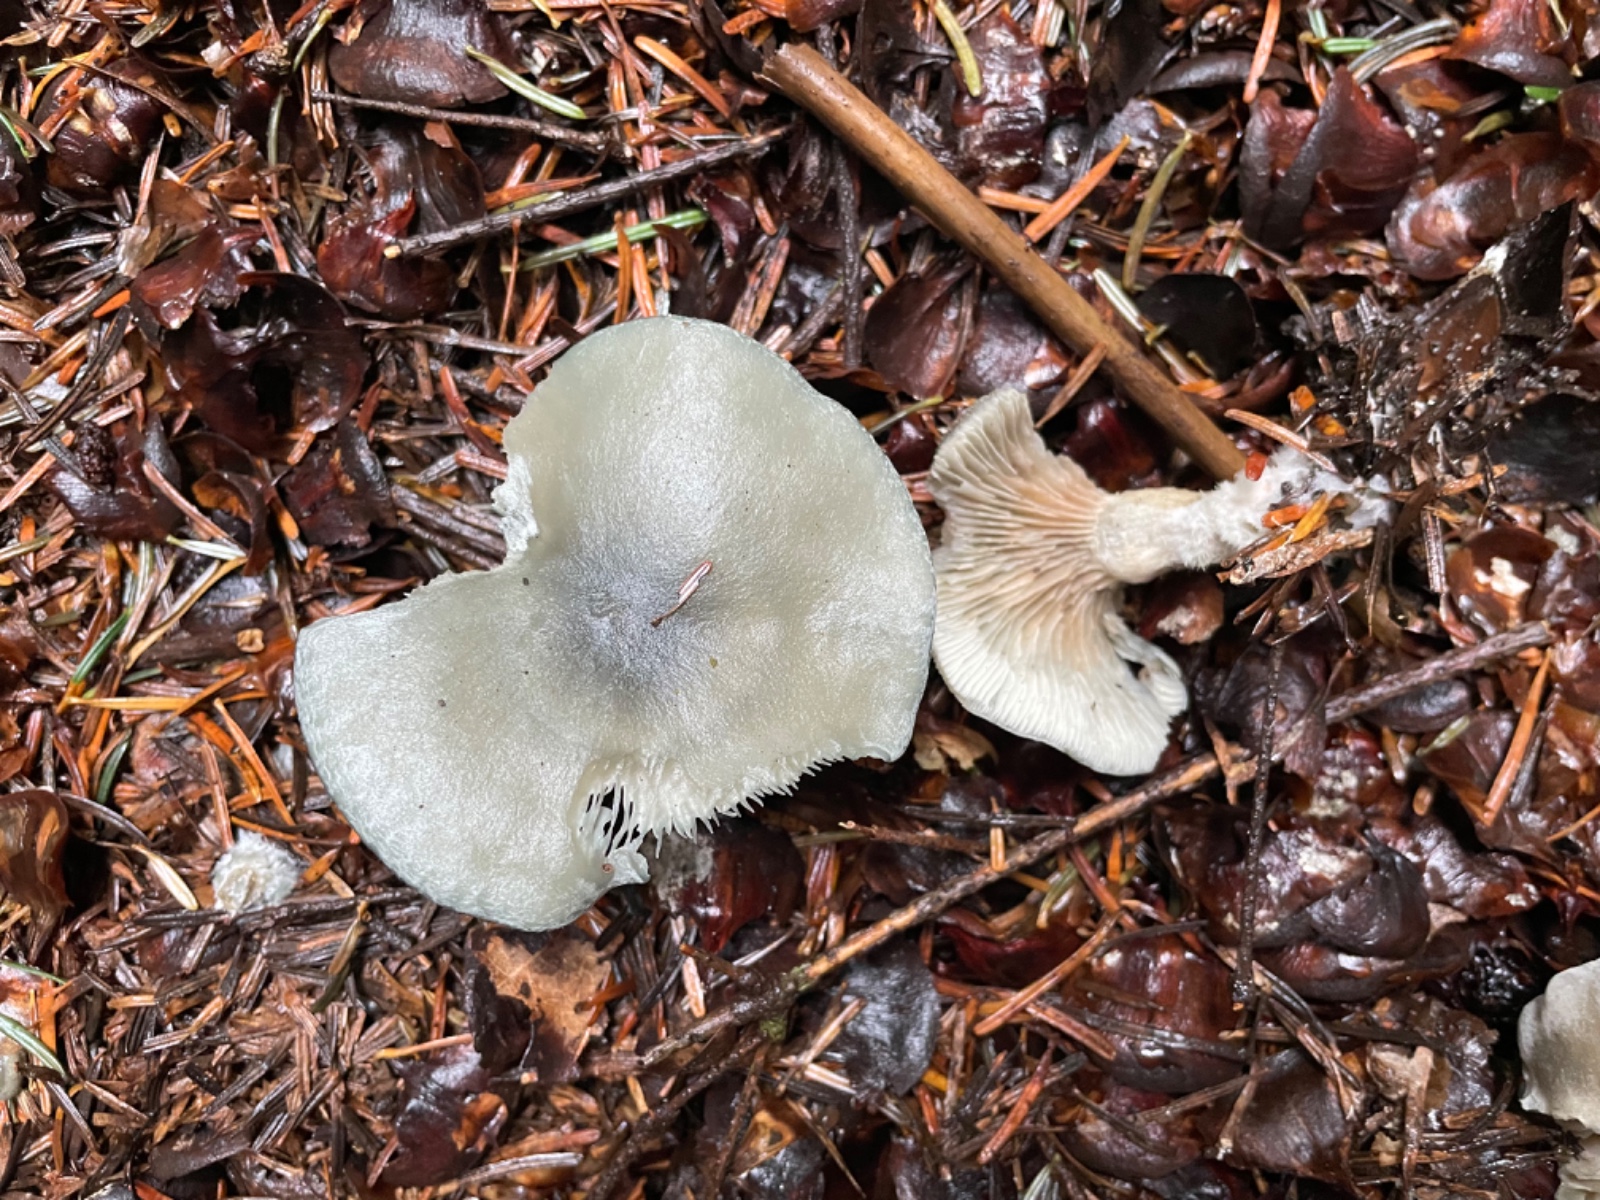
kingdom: Fungi
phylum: Basidiomycota
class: Agaricomycetes
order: Agaricales
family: Tricholomataceae
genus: Clitocybe
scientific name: Clitocybe odora
